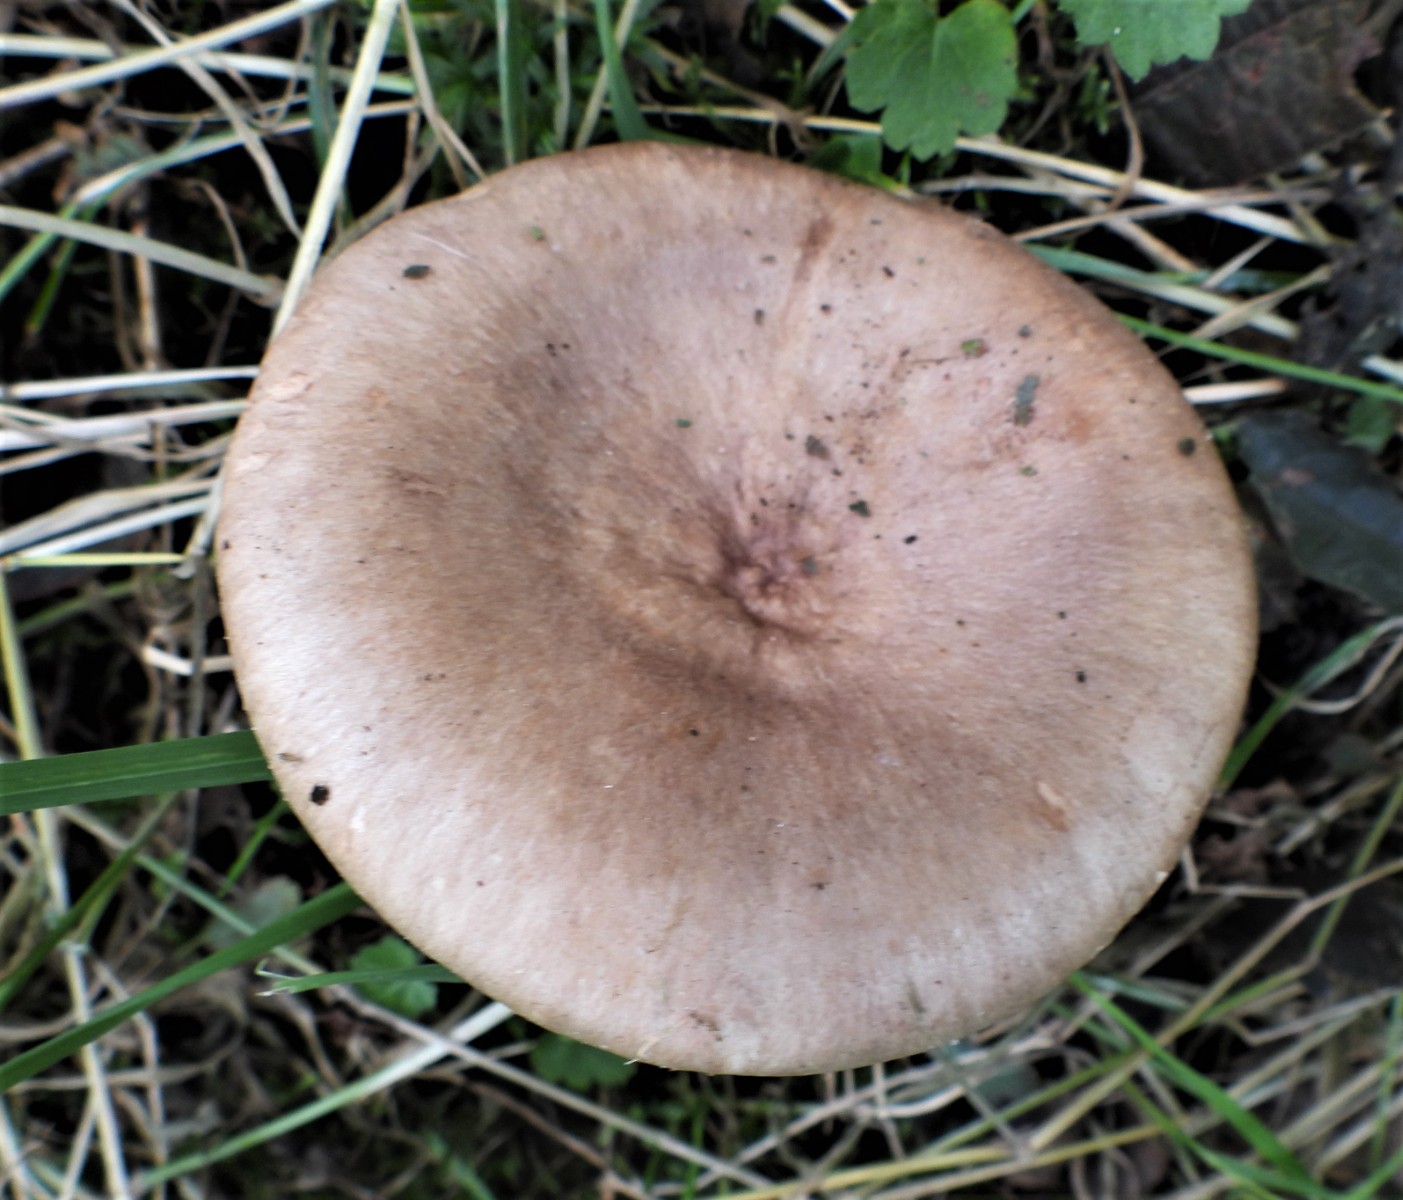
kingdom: Fungi
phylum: Basidiomycota
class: Agaricomycetes
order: Russulales
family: Russulaceae
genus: Lactarius
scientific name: Lactarius pyrogalus
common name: hassel-mælkehat
